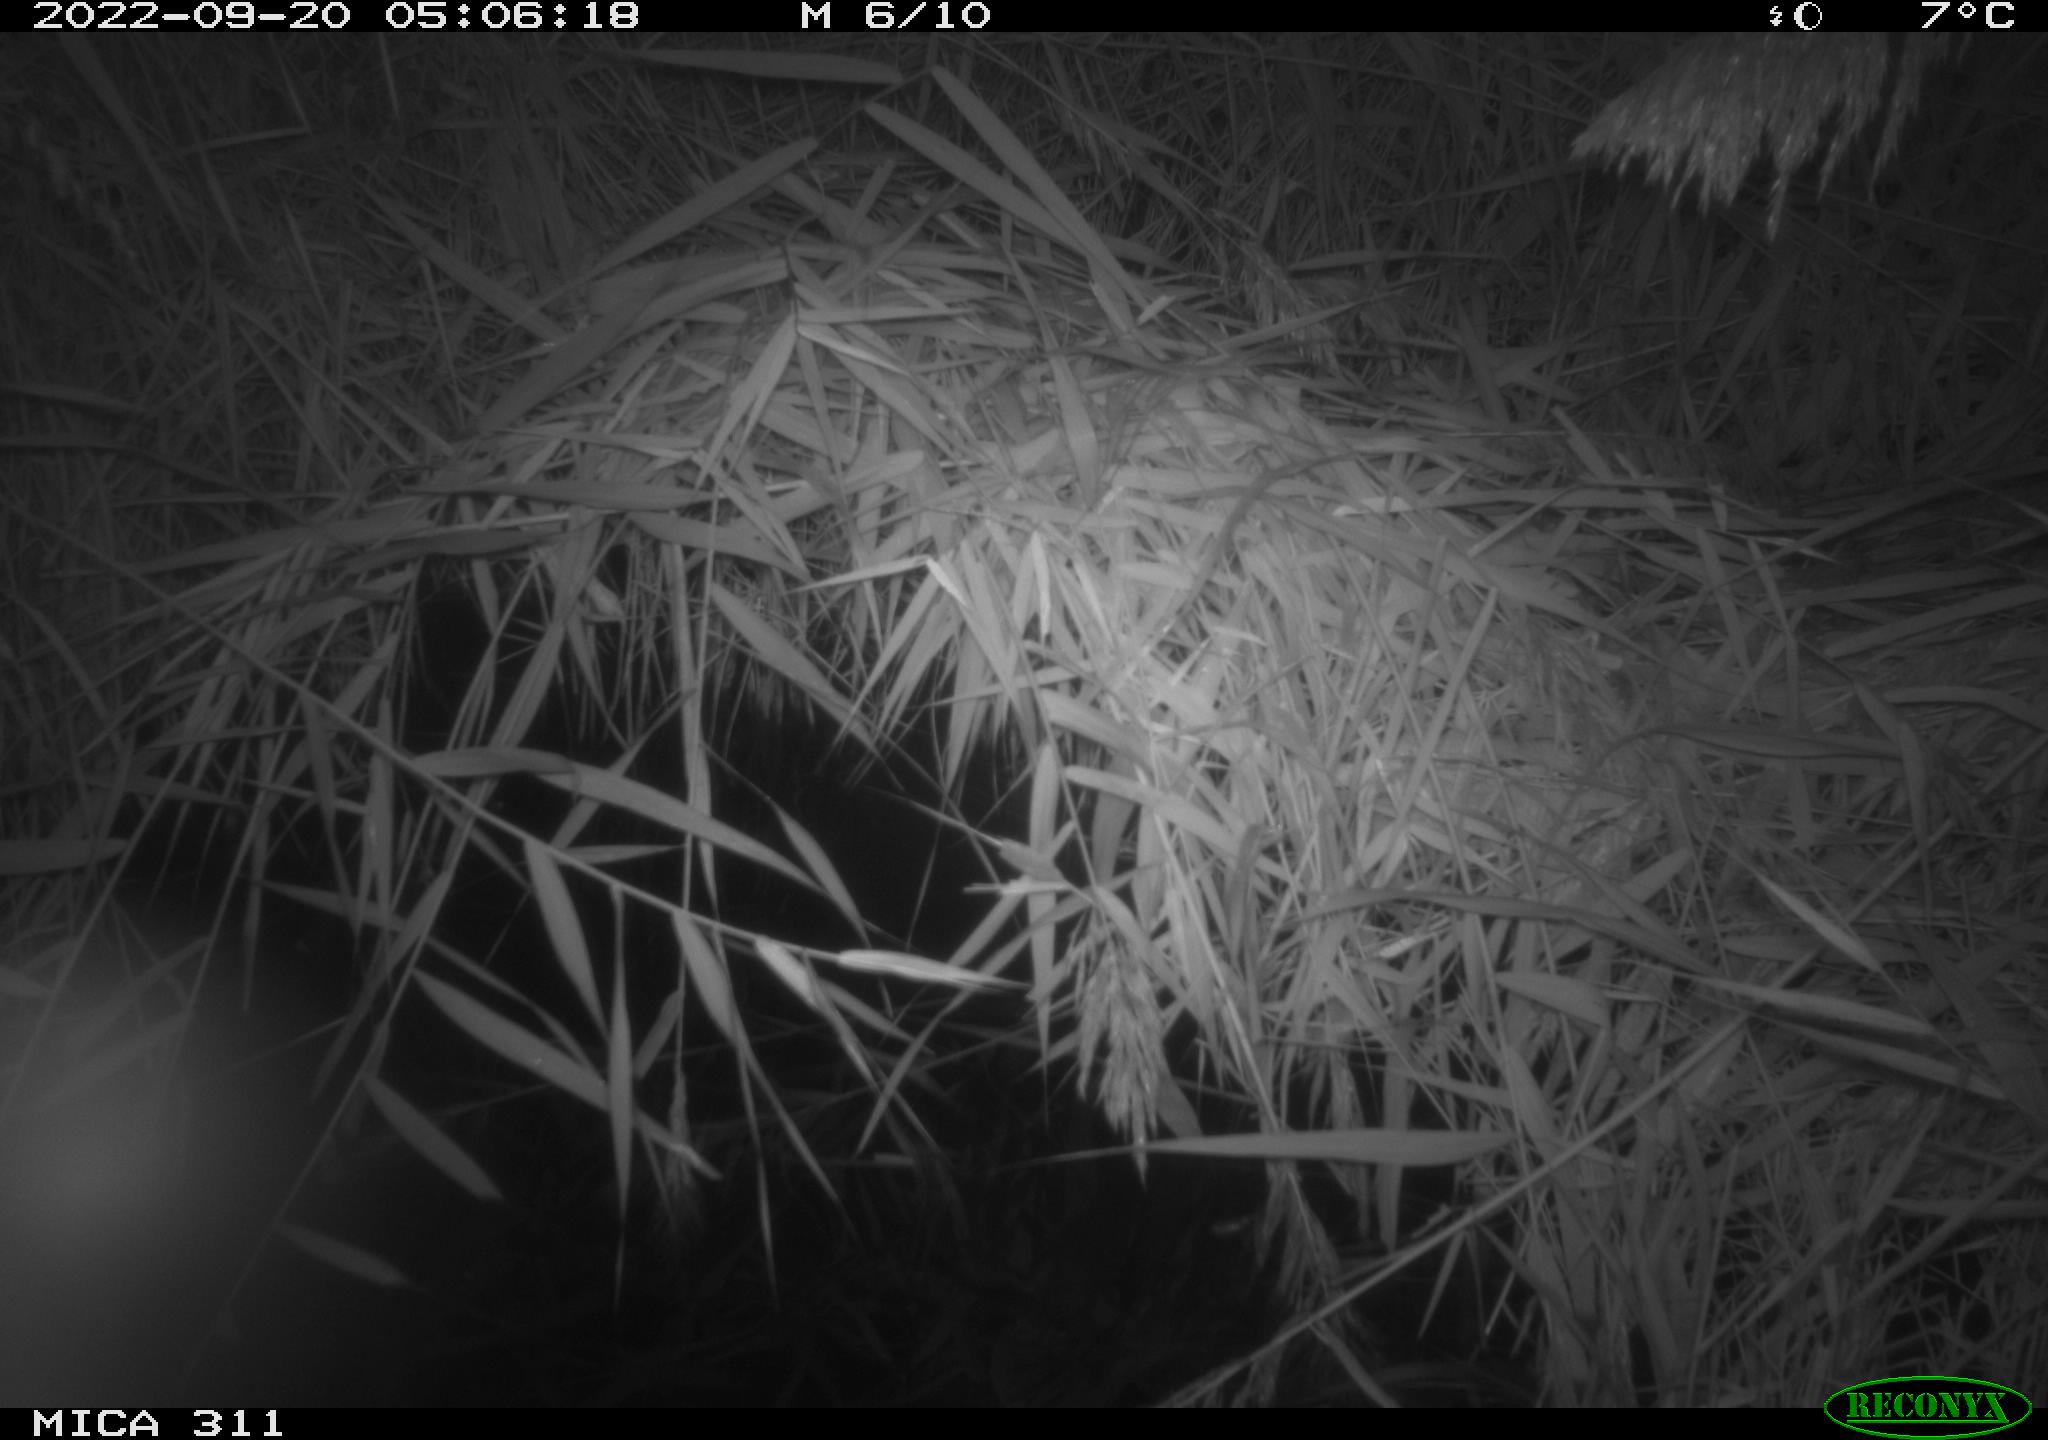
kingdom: Animalia
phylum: Chordata
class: Mammalia
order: Rodentia
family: Muridae
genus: Rattus
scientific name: Rattus norvegicus
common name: Brown rat
